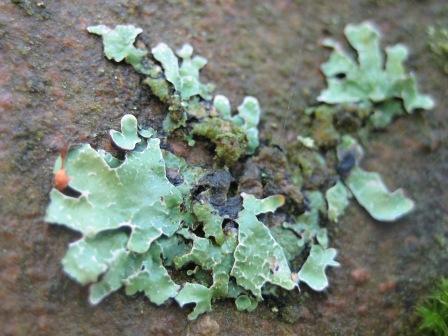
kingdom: Fungi
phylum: Ascomycota
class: Lecanoromycetes
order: Lecanorales
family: Parmeliaceae
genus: Parmelia
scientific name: Parmelia sulcata
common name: rynket skållav
